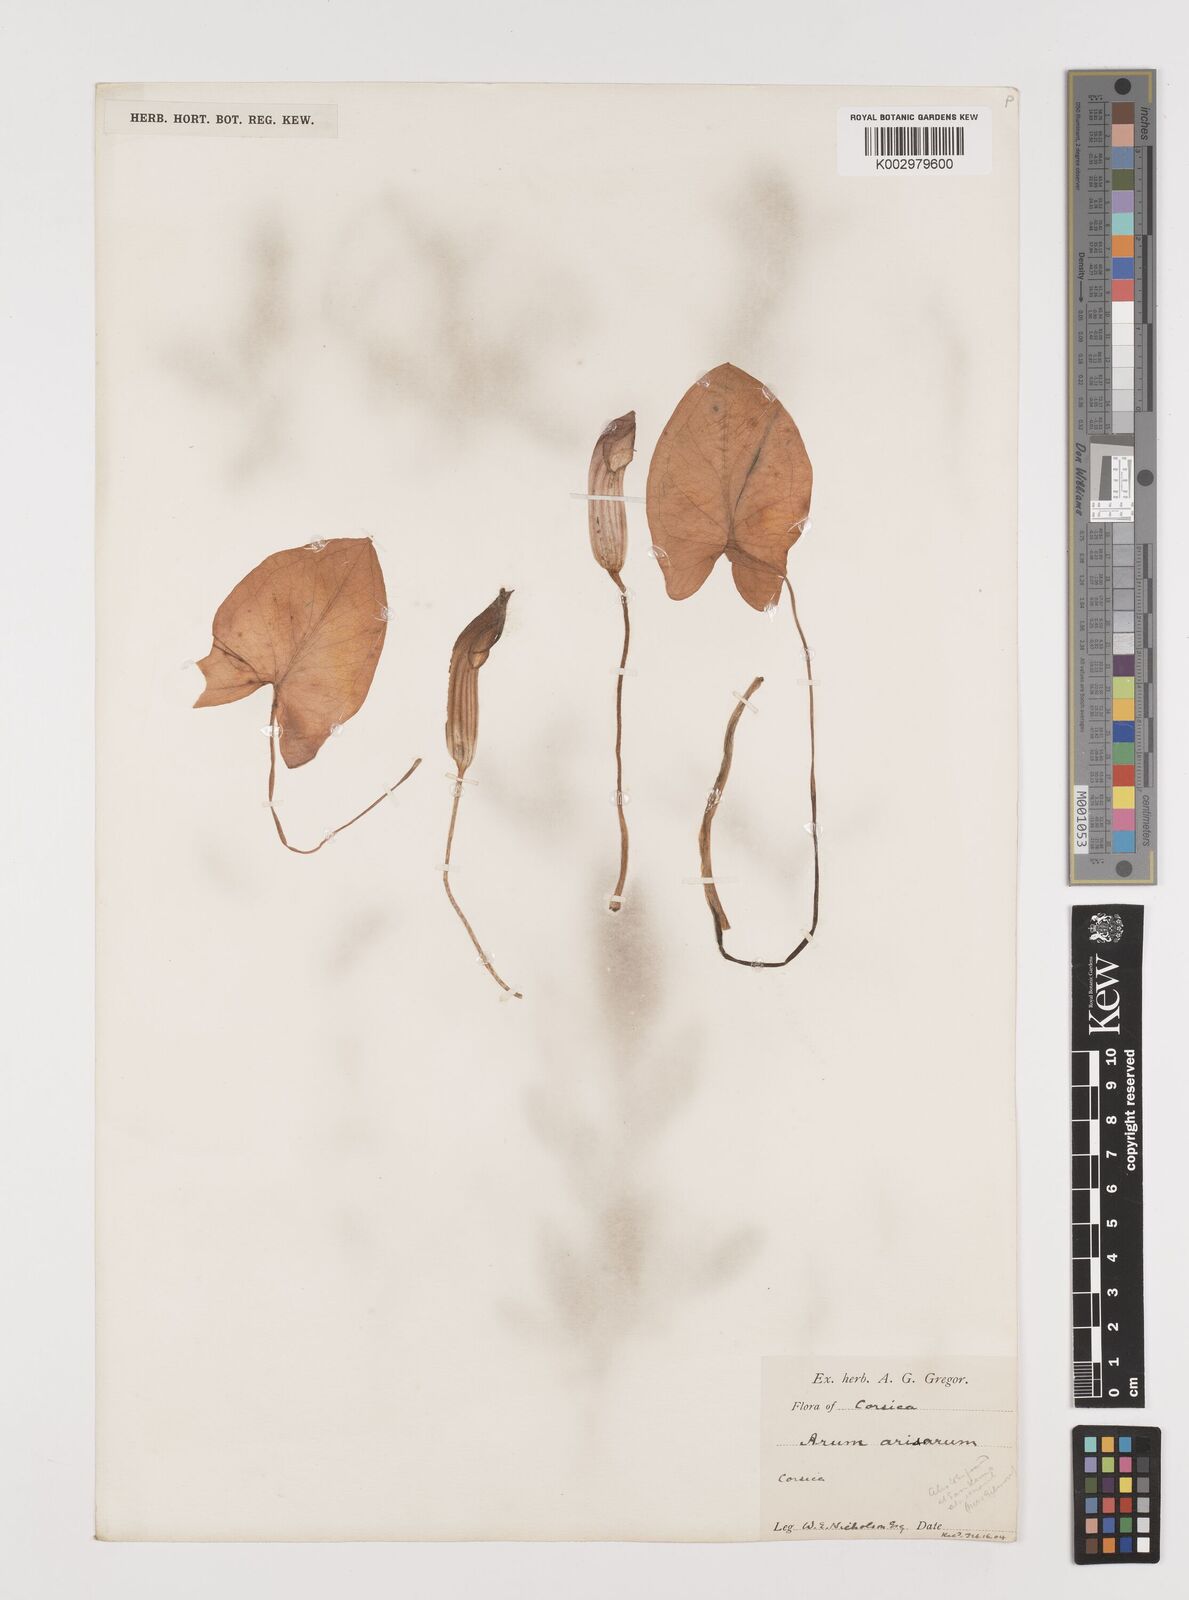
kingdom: Plantae
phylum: Tracheophyta
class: Liliopsida
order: Alismatales
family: Araceae
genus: Arisarum
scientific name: Arisarum vulgare
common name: Common arisarum
